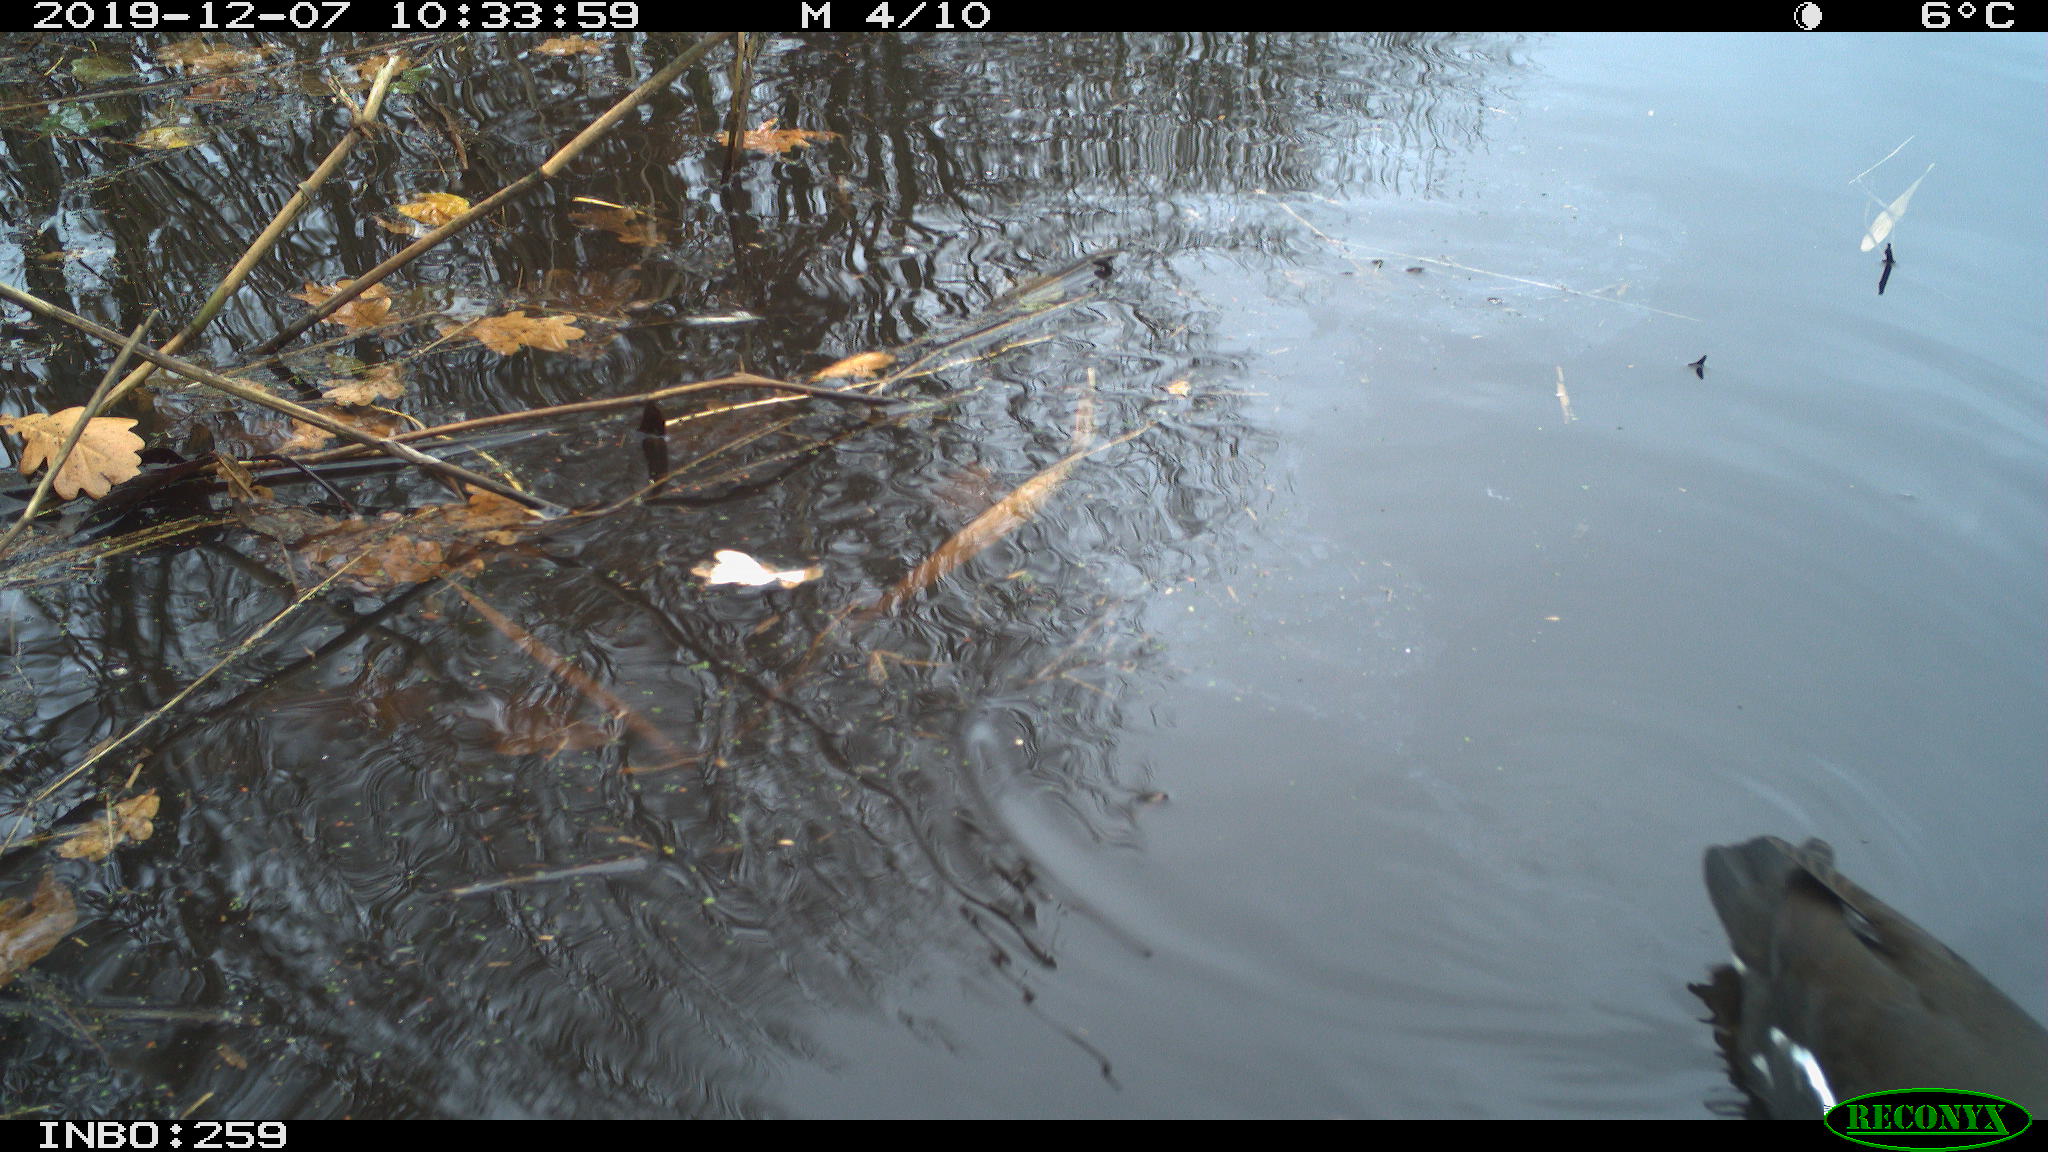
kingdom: Animalia
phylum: Chordata
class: Aves
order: Gruiformes
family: Rallidae
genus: Gallinula
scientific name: Gallinula chloropus
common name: Common moorhen
